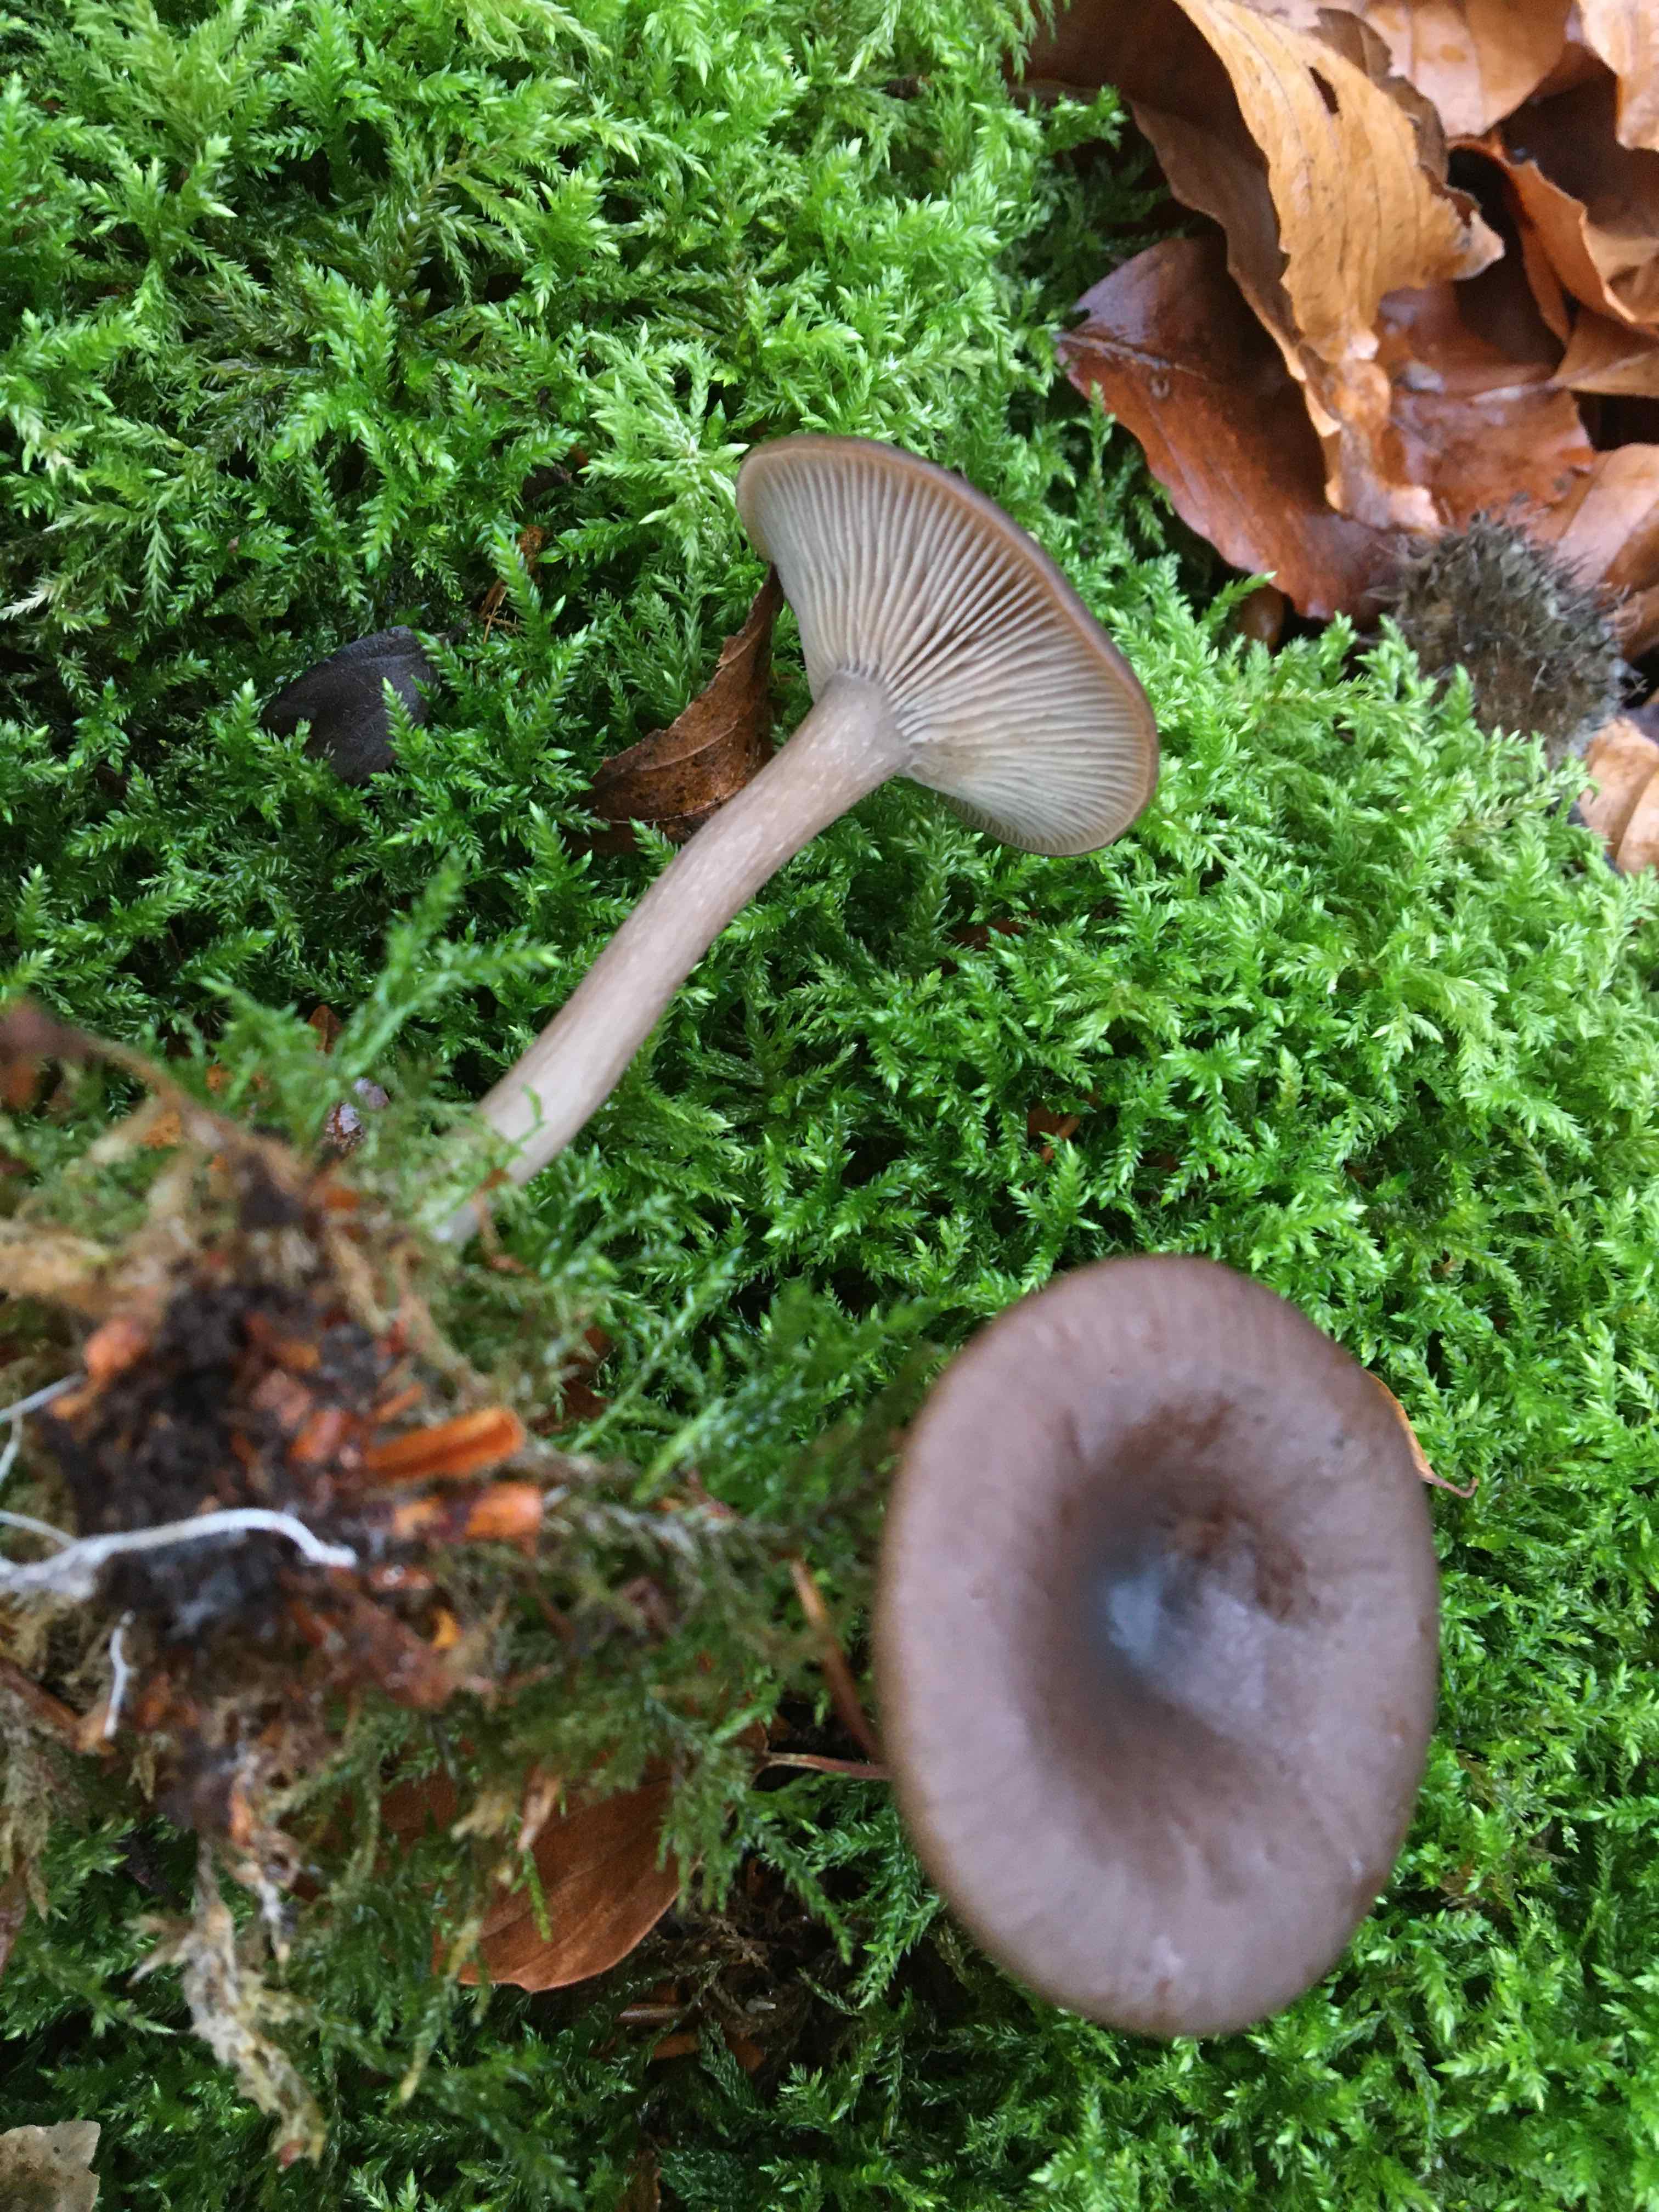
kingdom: Fungi
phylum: Basidiomycota
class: Agaricomycetes
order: Agaricales
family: Pseudoclitocybaceae
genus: Pseudoclitocybe
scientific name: Pseudoclitocybe cyathiformis
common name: almindelig bægertragthat
